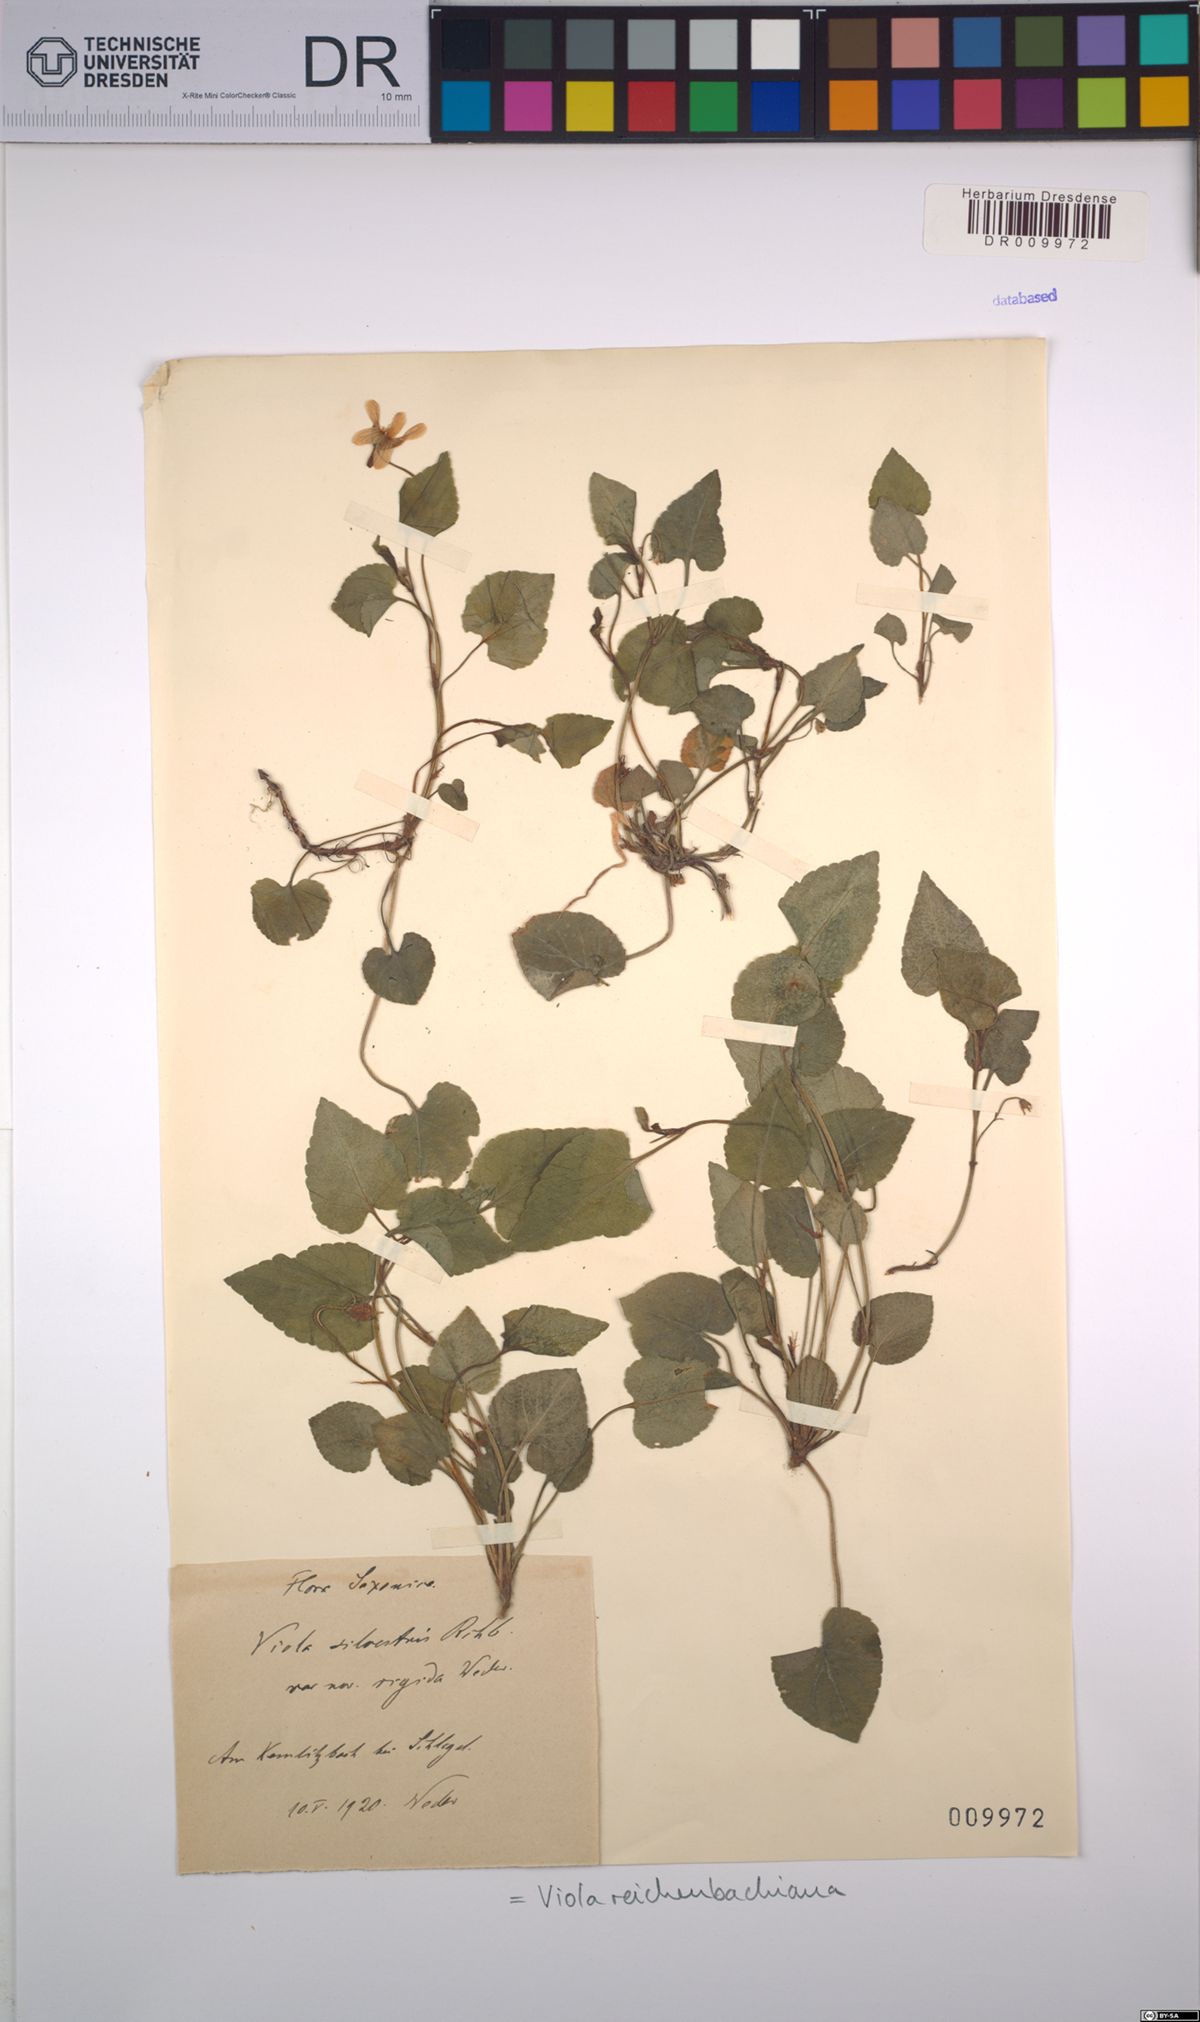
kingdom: Plantae
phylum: Tracheophyta
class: Magnoliopsida
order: Malpighiales
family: Violaceae
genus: Viola
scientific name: Viola reichenbachiana
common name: Early dog-violet
